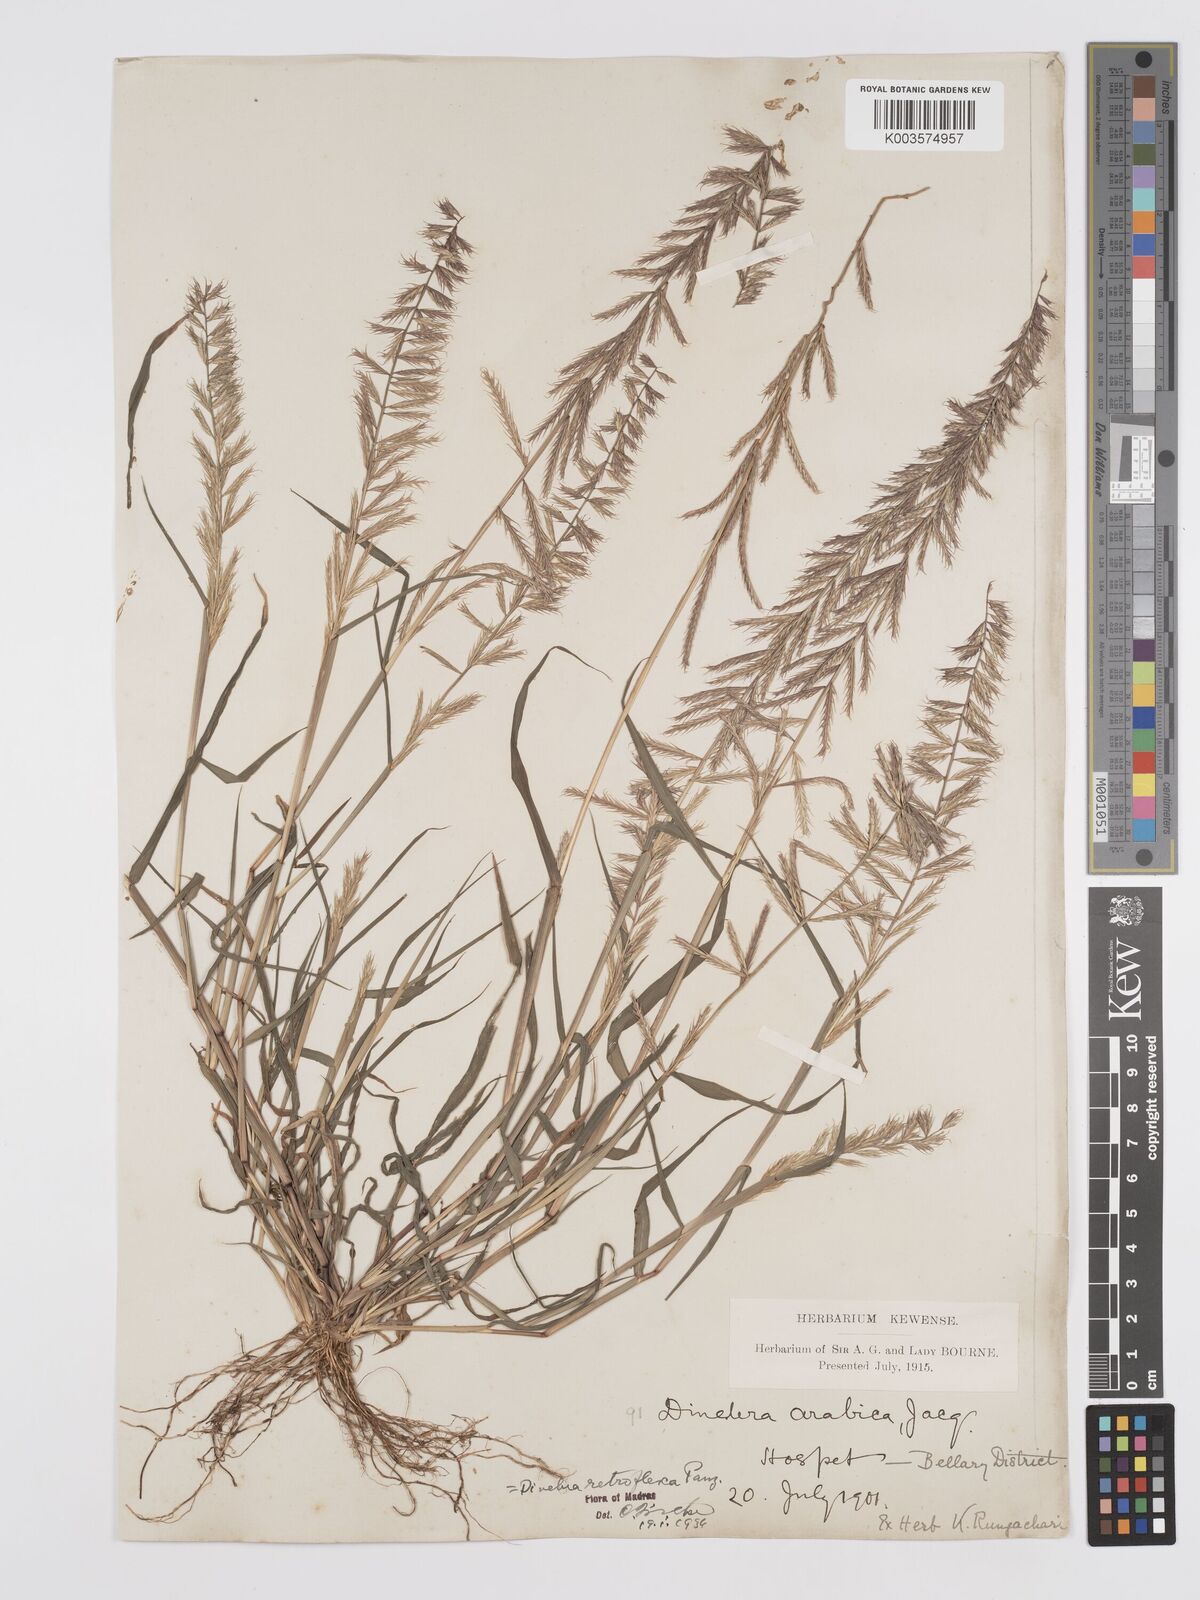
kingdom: Plantae
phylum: Tracheophyta
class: Liliopsida
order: Poales
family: Poaceae
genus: Dinebra
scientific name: Dinebra retroflexa
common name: Viper grass
